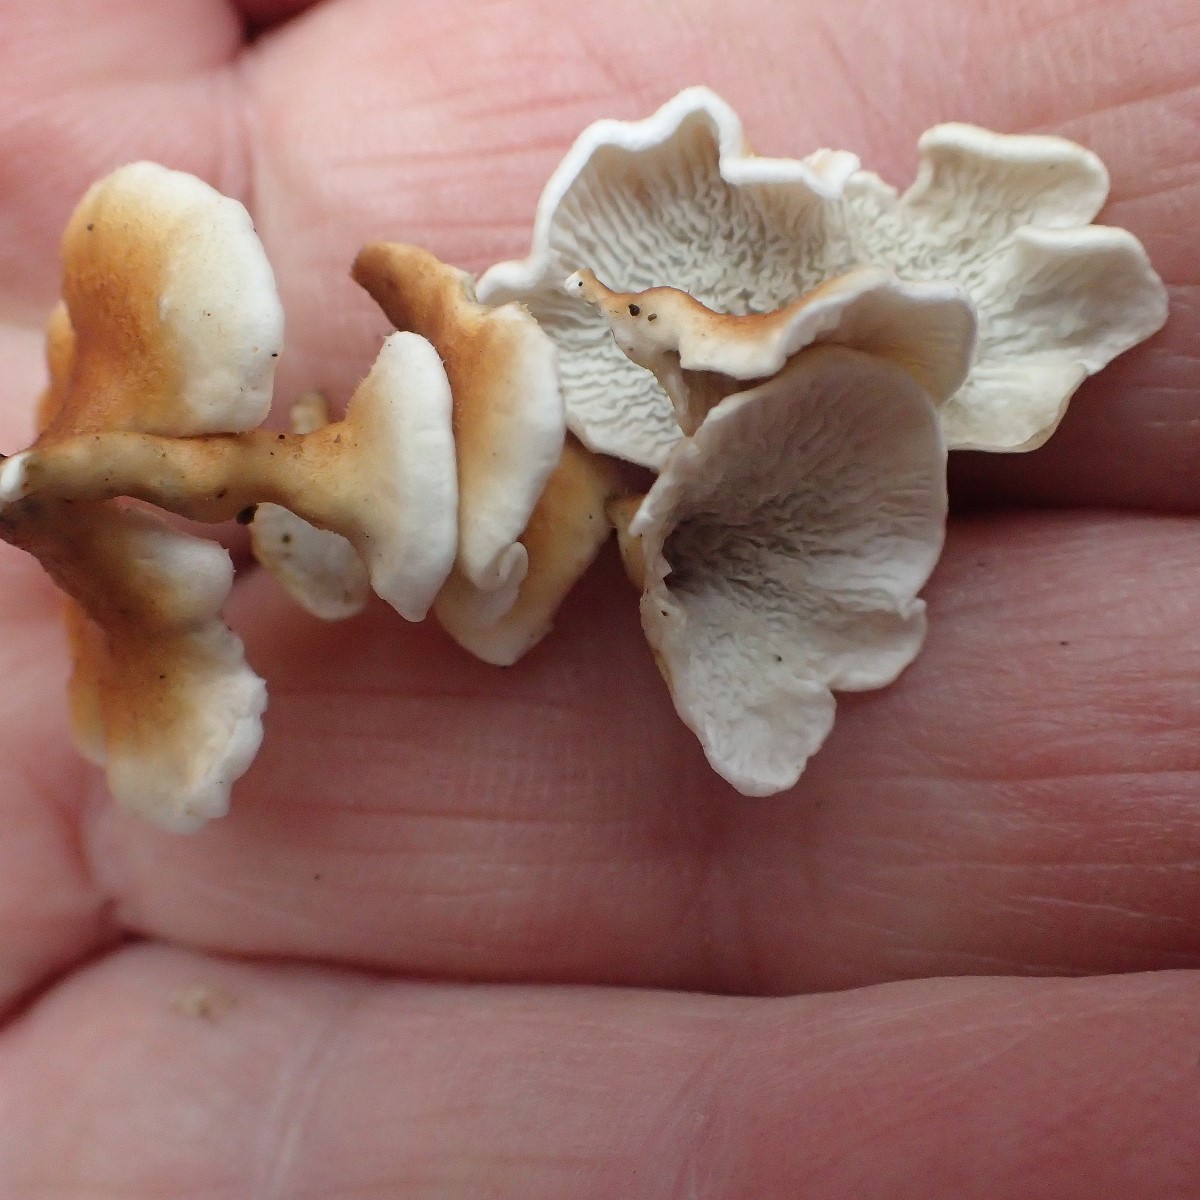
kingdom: Fungi
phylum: Basidiomycota
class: Agaricomycetes
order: Amylocorticiales
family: Amylocorticiaceae
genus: Plicaturopsis
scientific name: Plicaturopsis crispa
